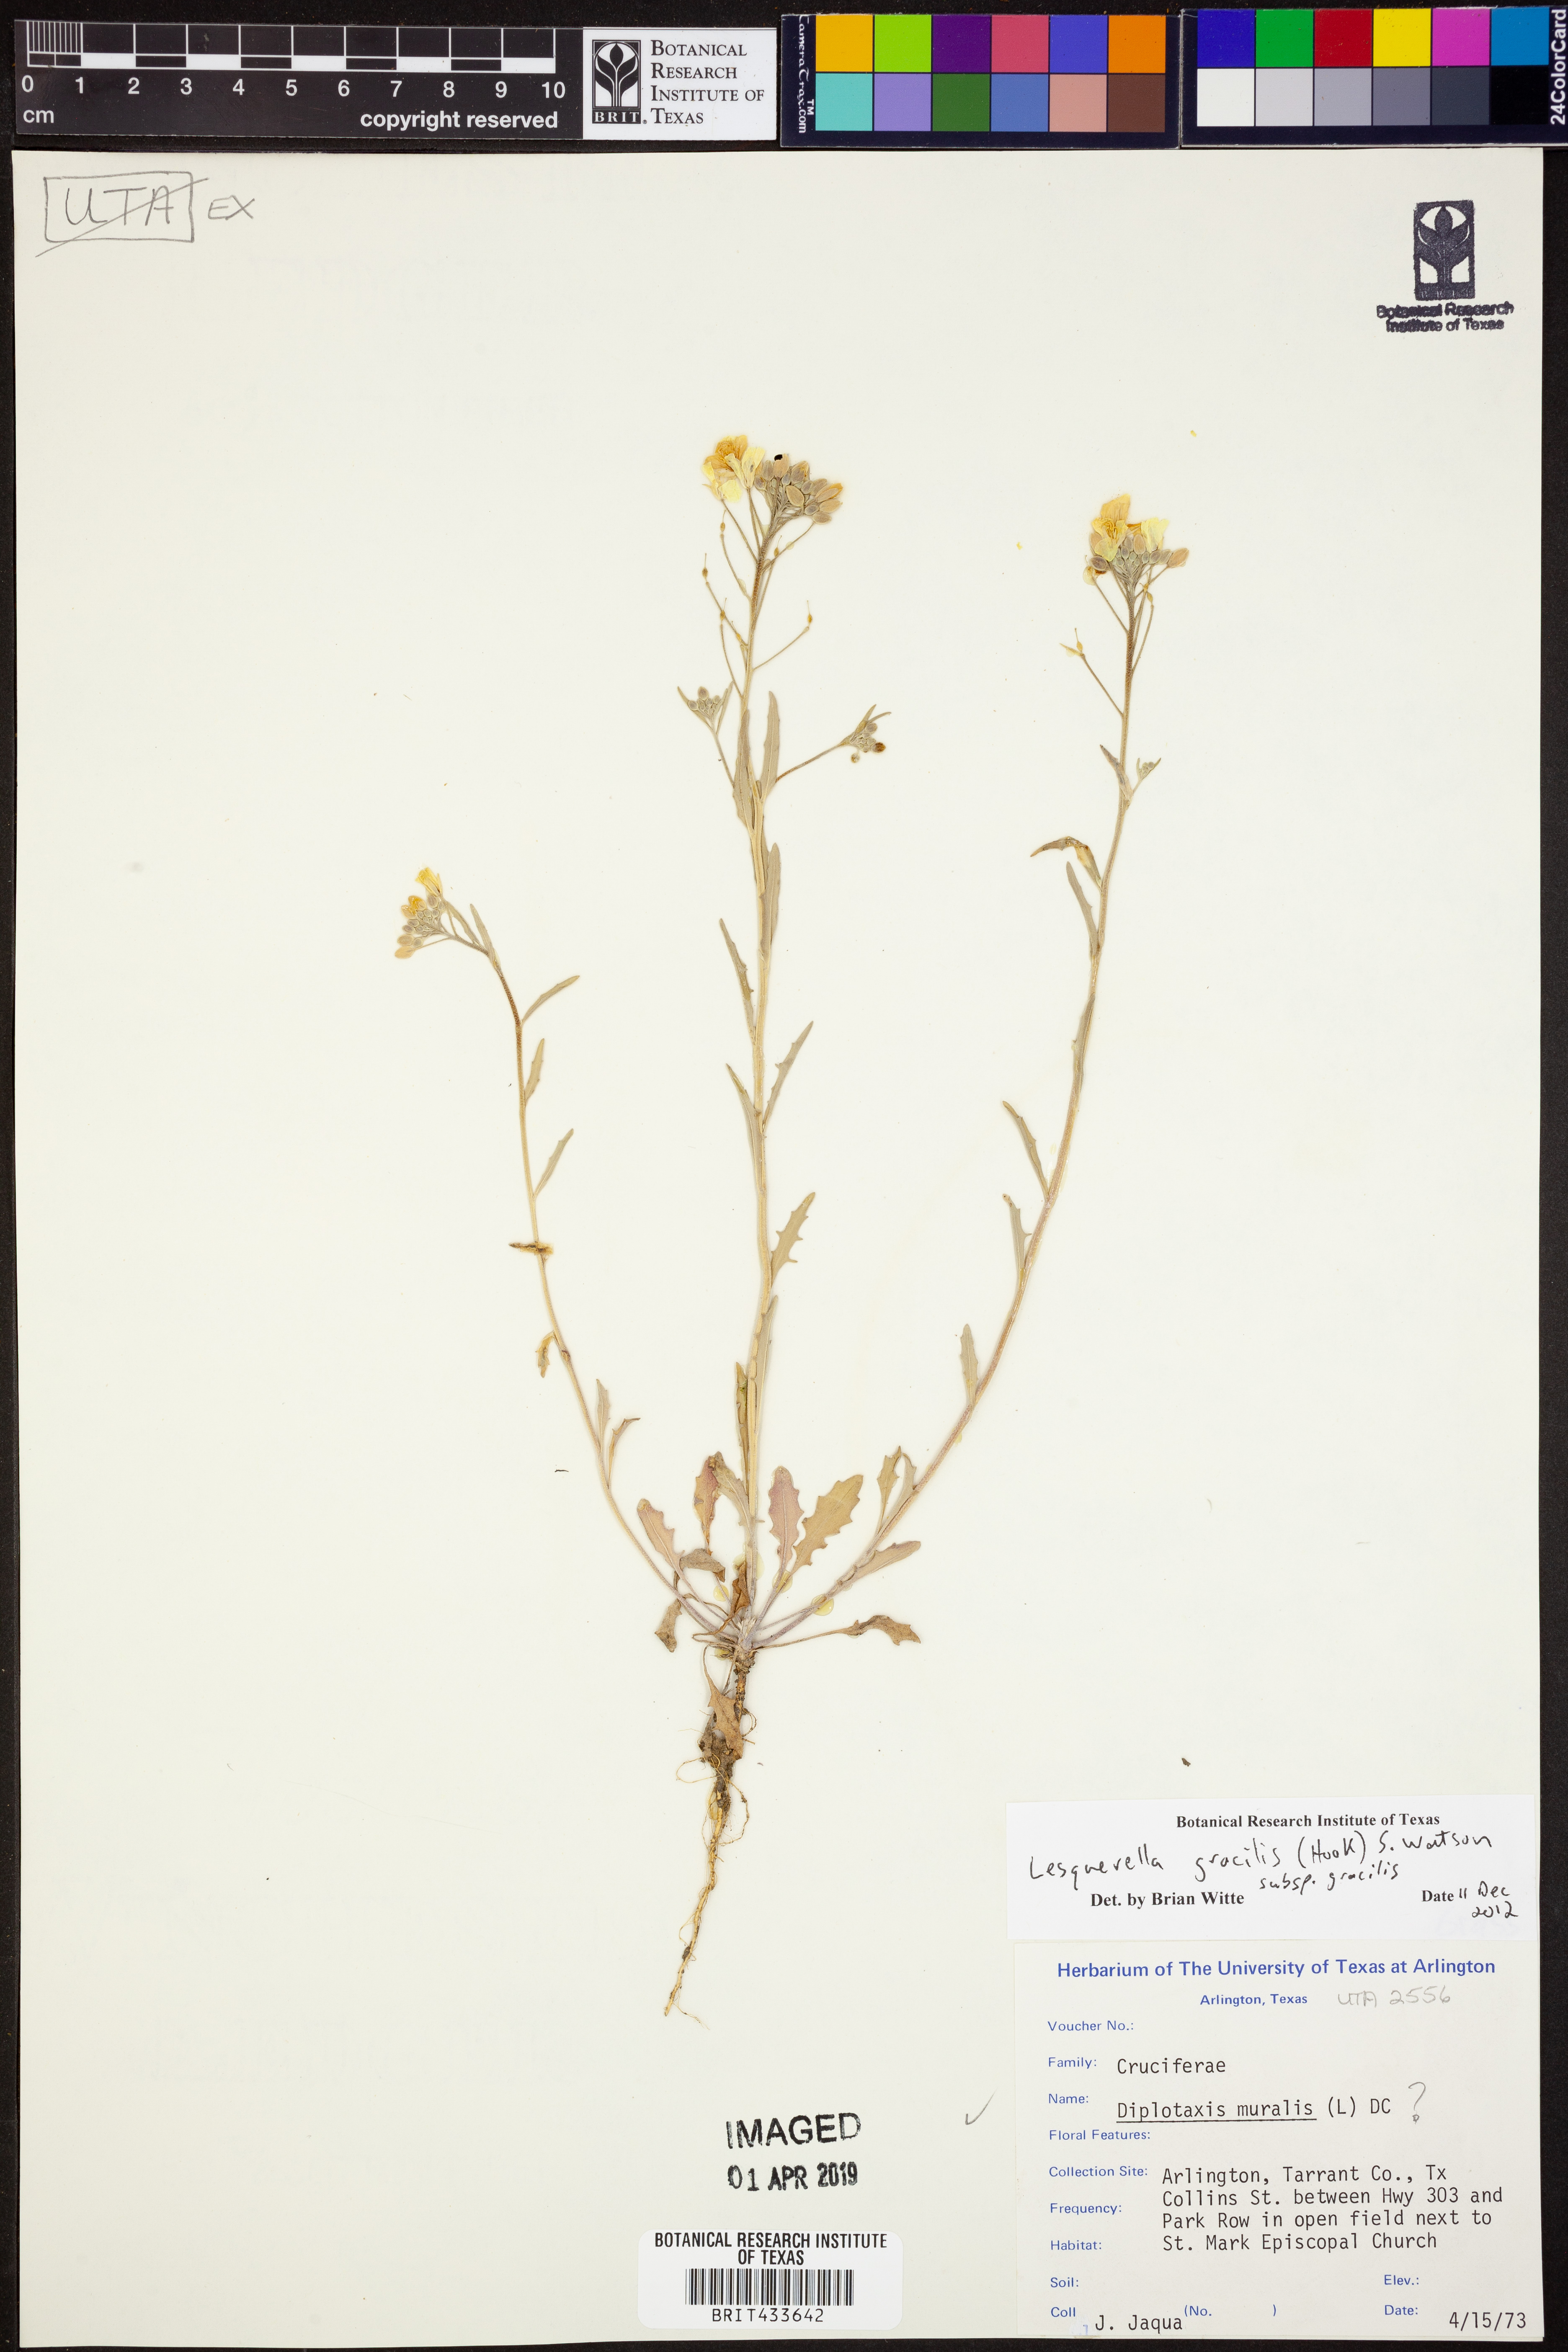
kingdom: Plantae
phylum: Tracheophyta
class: Magnoliopsida
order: Brassicales
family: Brassicaceae
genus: Physaria
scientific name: Physaria gracilis
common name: Spreading bladderpod
